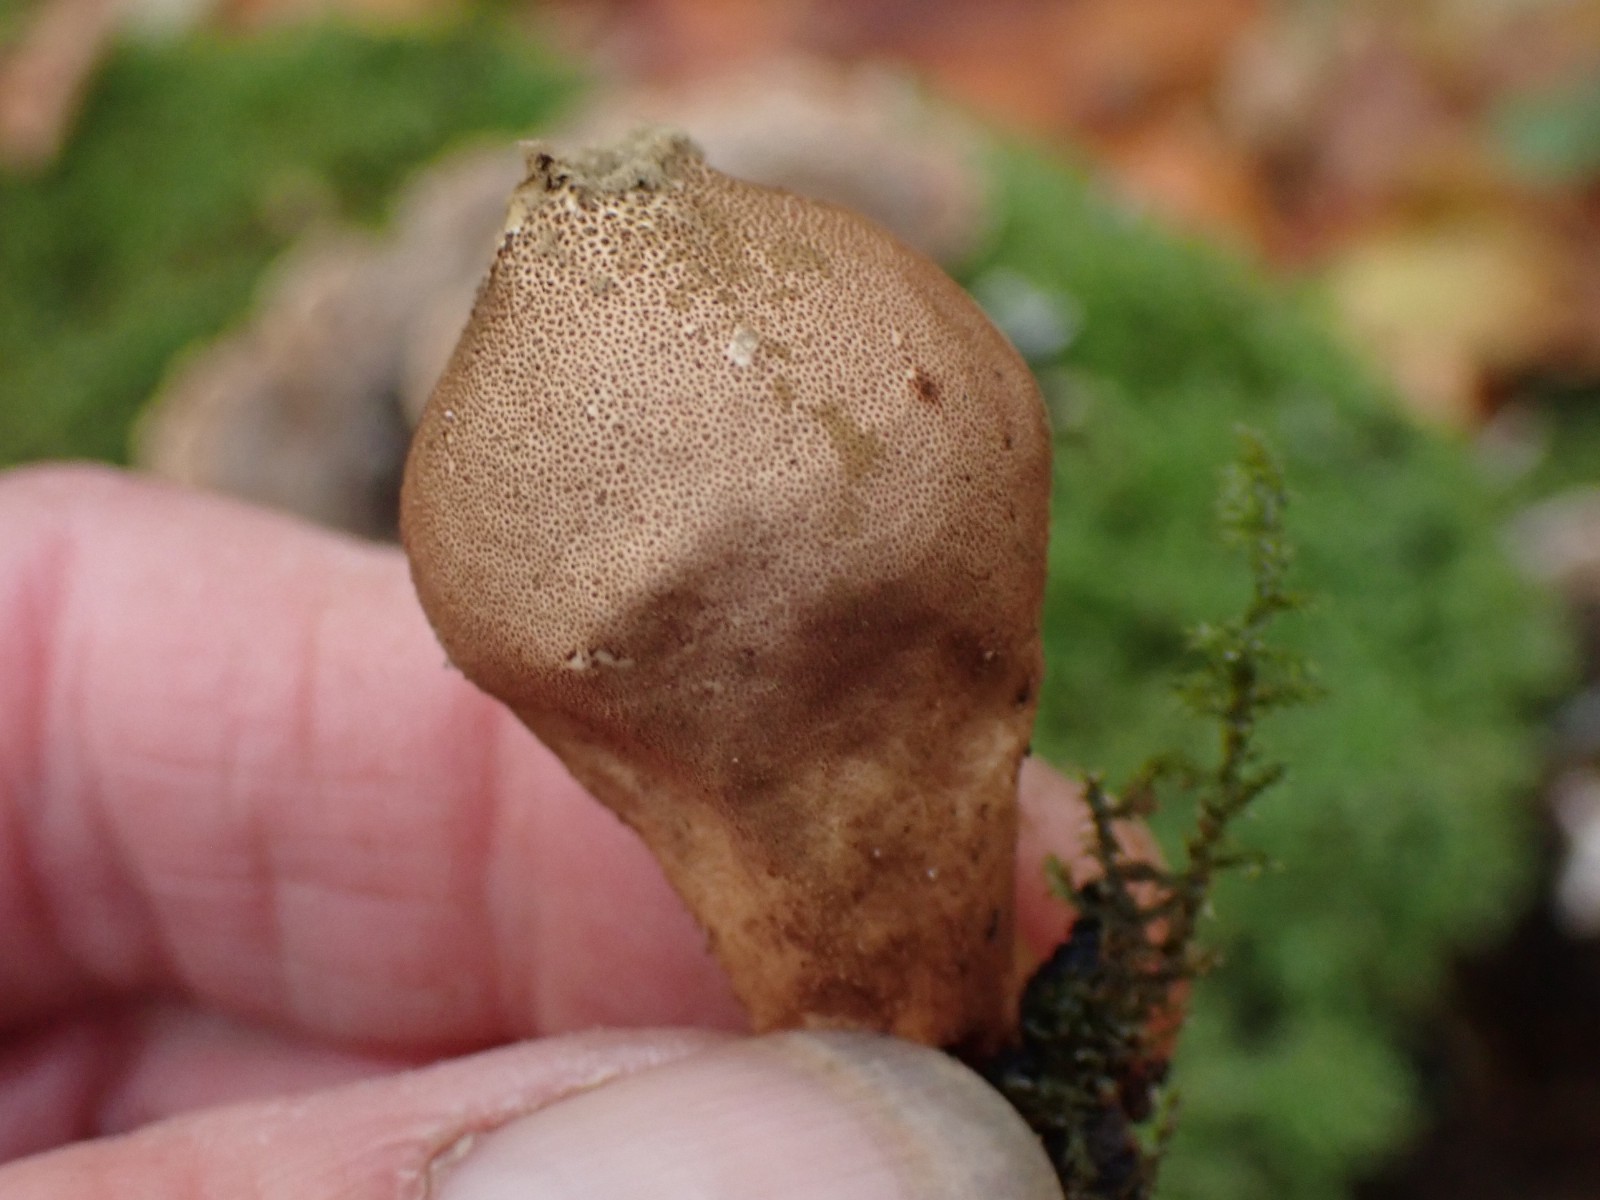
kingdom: Fungi
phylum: Basidiomycota
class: Agaricomycetes
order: Agaricales
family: Lycoperdaceae
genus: Apioperdon
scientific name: Apioperdon pyriforme
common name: pære-støvbold
